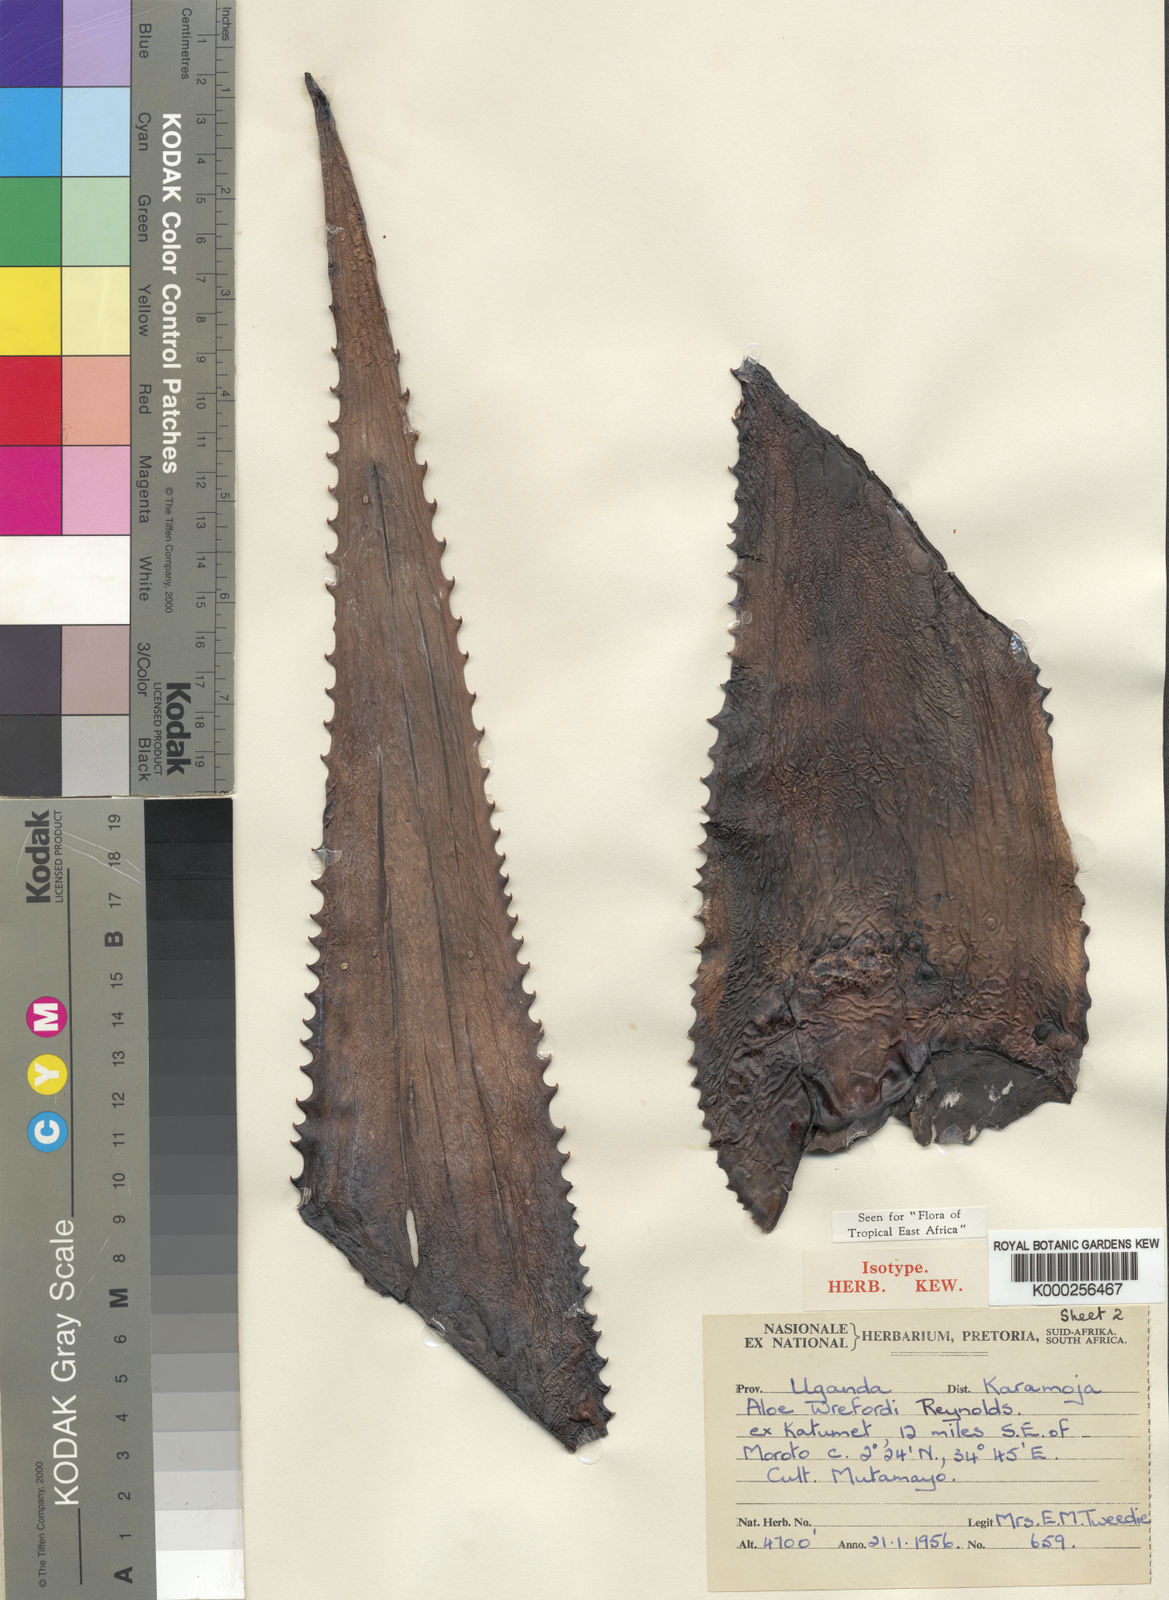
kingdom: Plantae
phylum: Tracheophyta
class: Liliopsida
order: Asparagales
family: Asphodelaceae
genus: Aloe
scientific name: Aloe wrefordii
